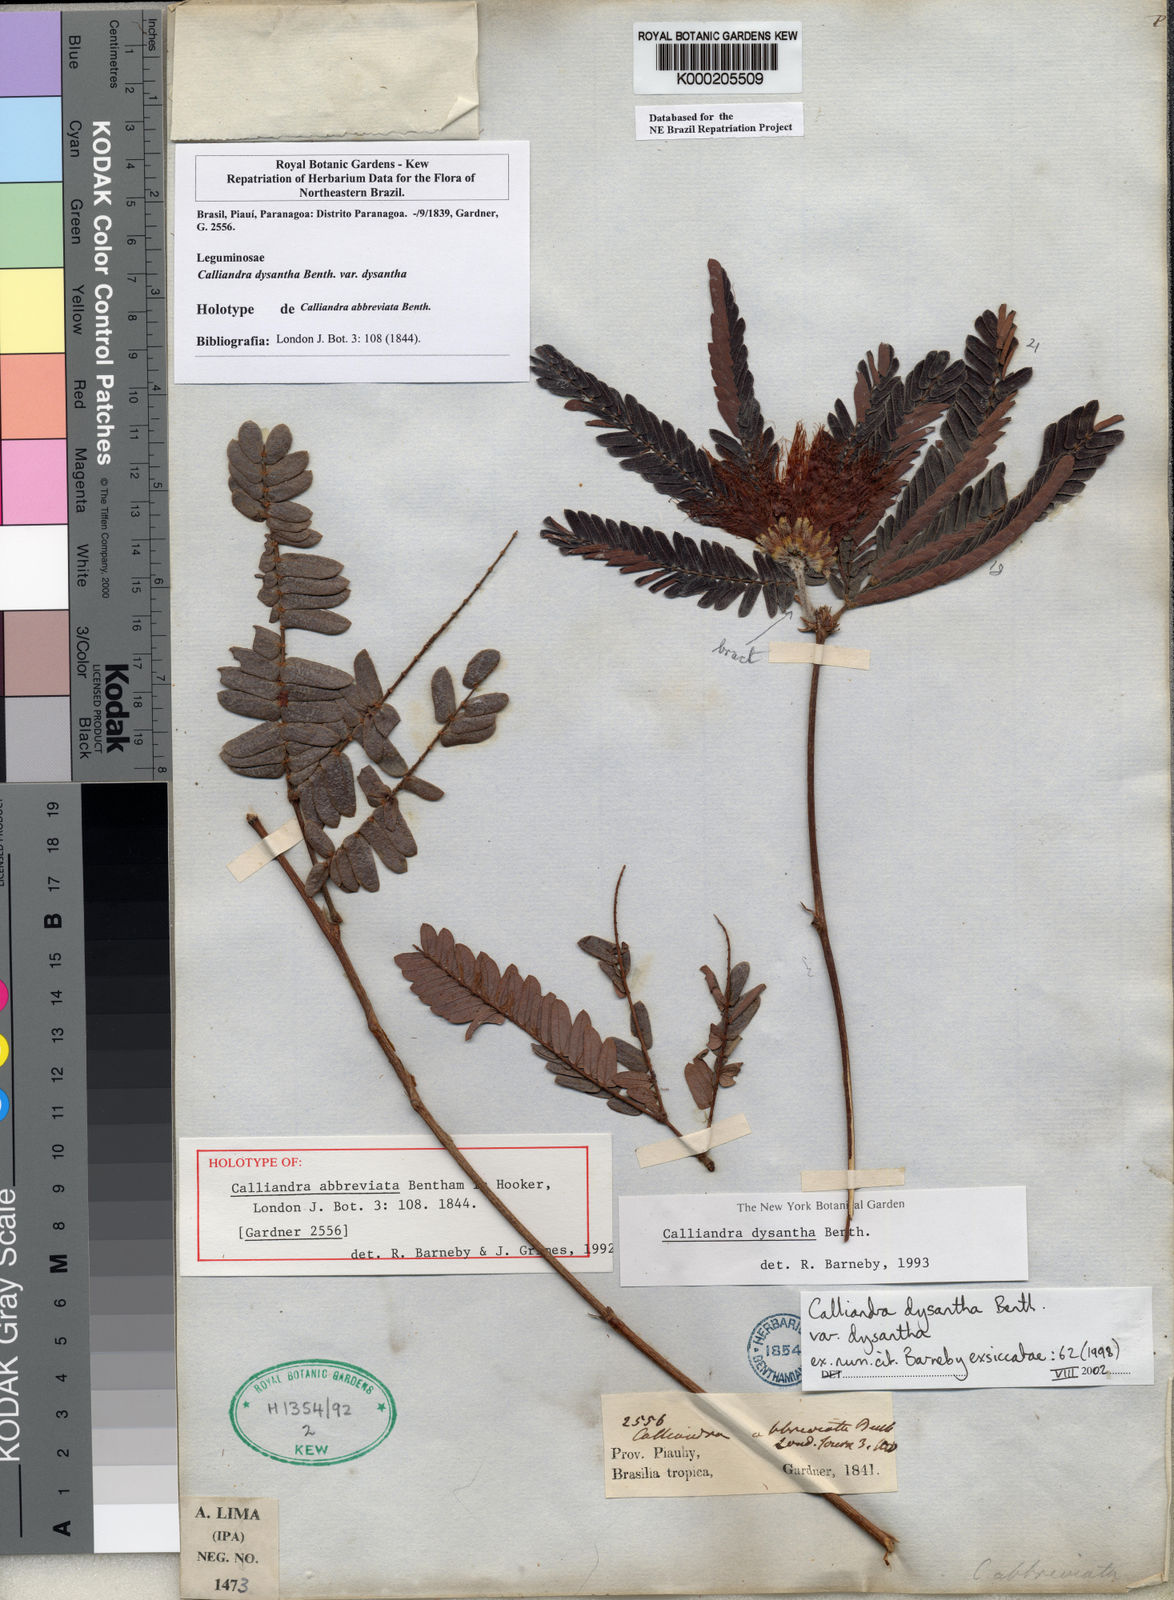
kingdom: Plantae
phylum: Tracheophyta
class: Magnoliopsida
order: Fabales
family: Fabaceae
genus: Calliandra
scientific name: Calliandra dysantha
